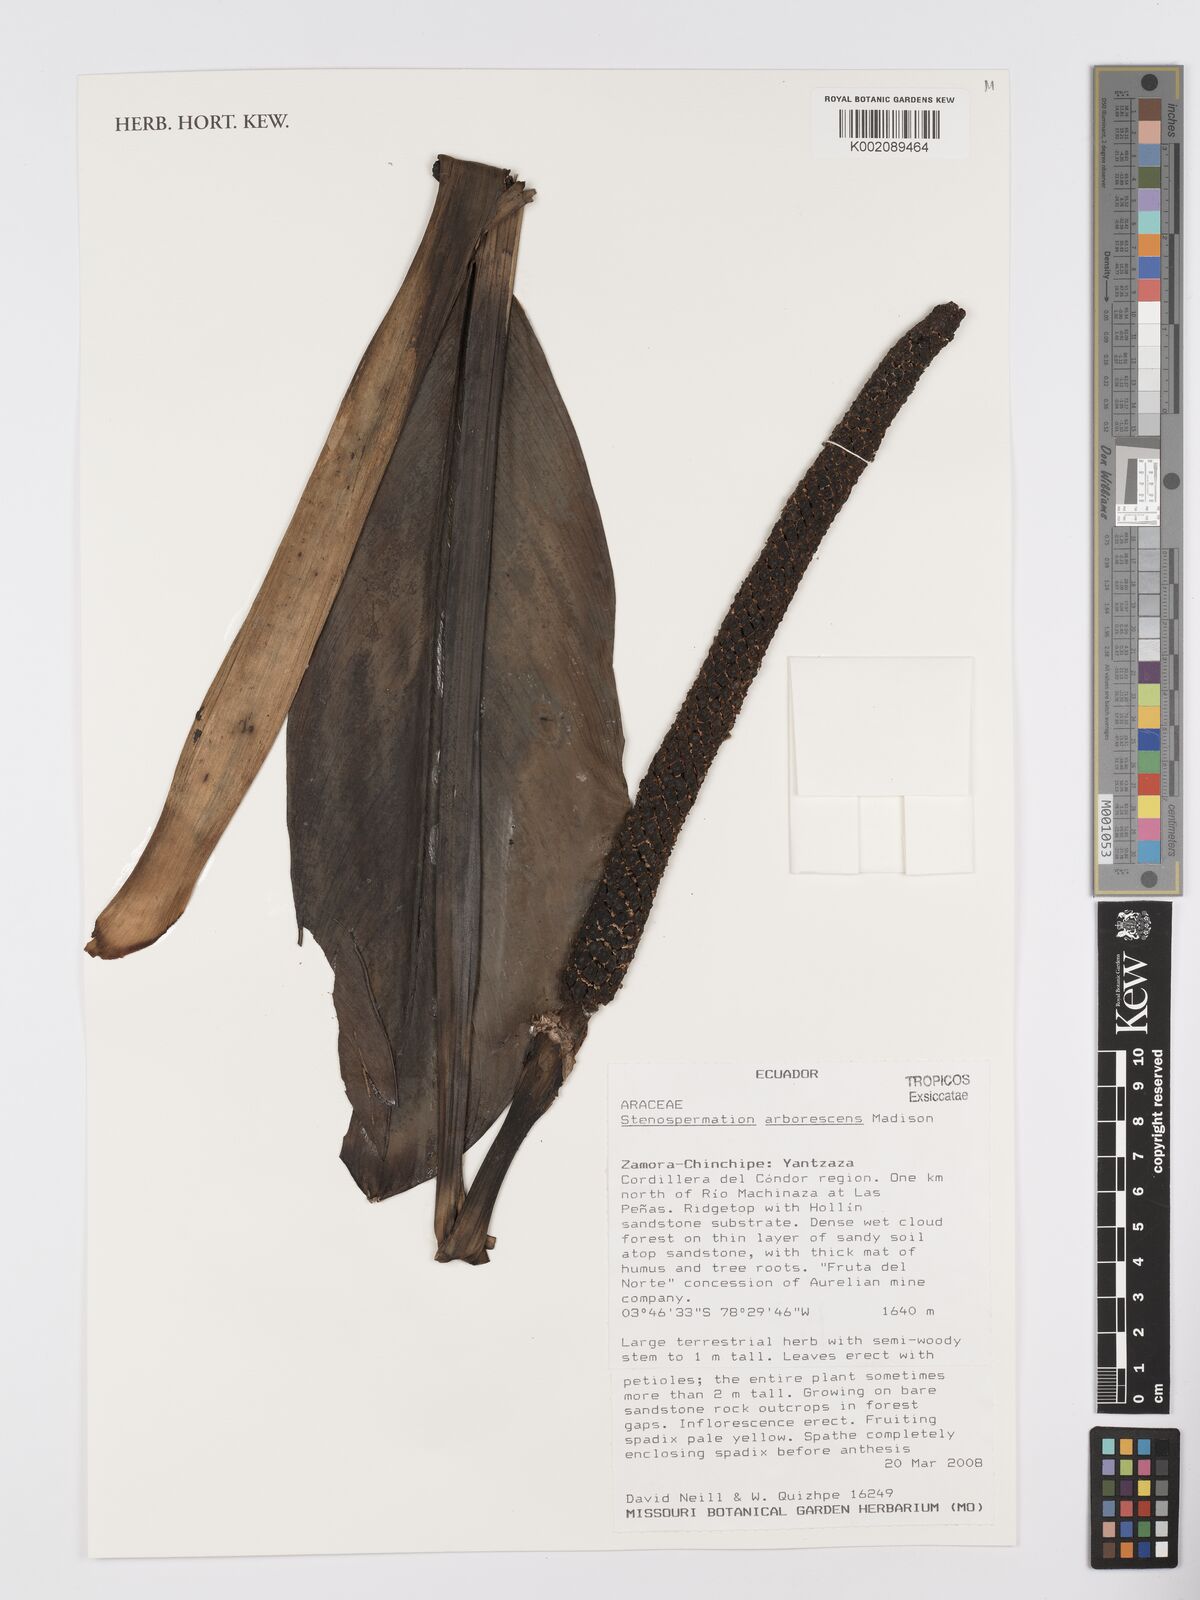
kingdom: Plantae
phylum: Tracheophyta
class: Liliopsida
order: Alismatales
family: Araceae
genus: Stenospermation
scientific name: Stenospermation arborescens
